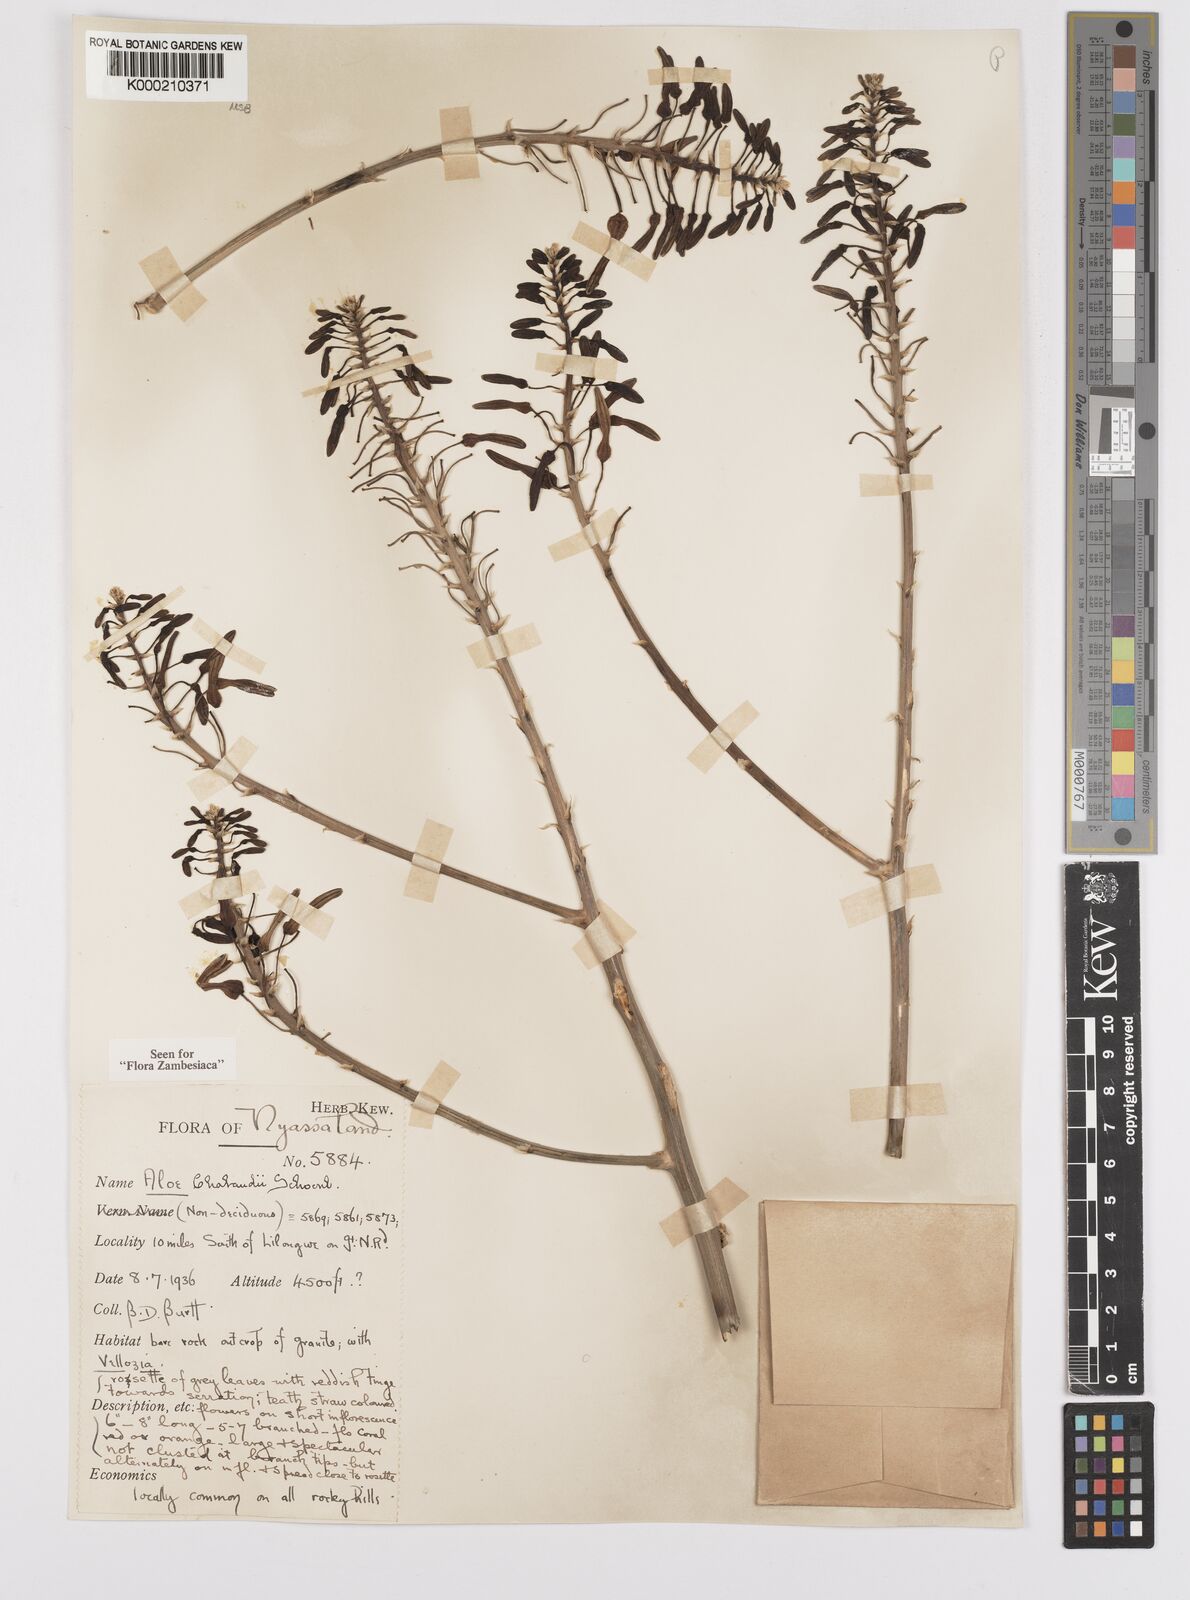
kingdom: Plantae
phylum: Tracheophyta
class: Liliopsida
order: Asparagales
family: Asphodelaceae
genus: Aloe
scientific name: Aloe chabaudii
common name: Chabaud's aloe
